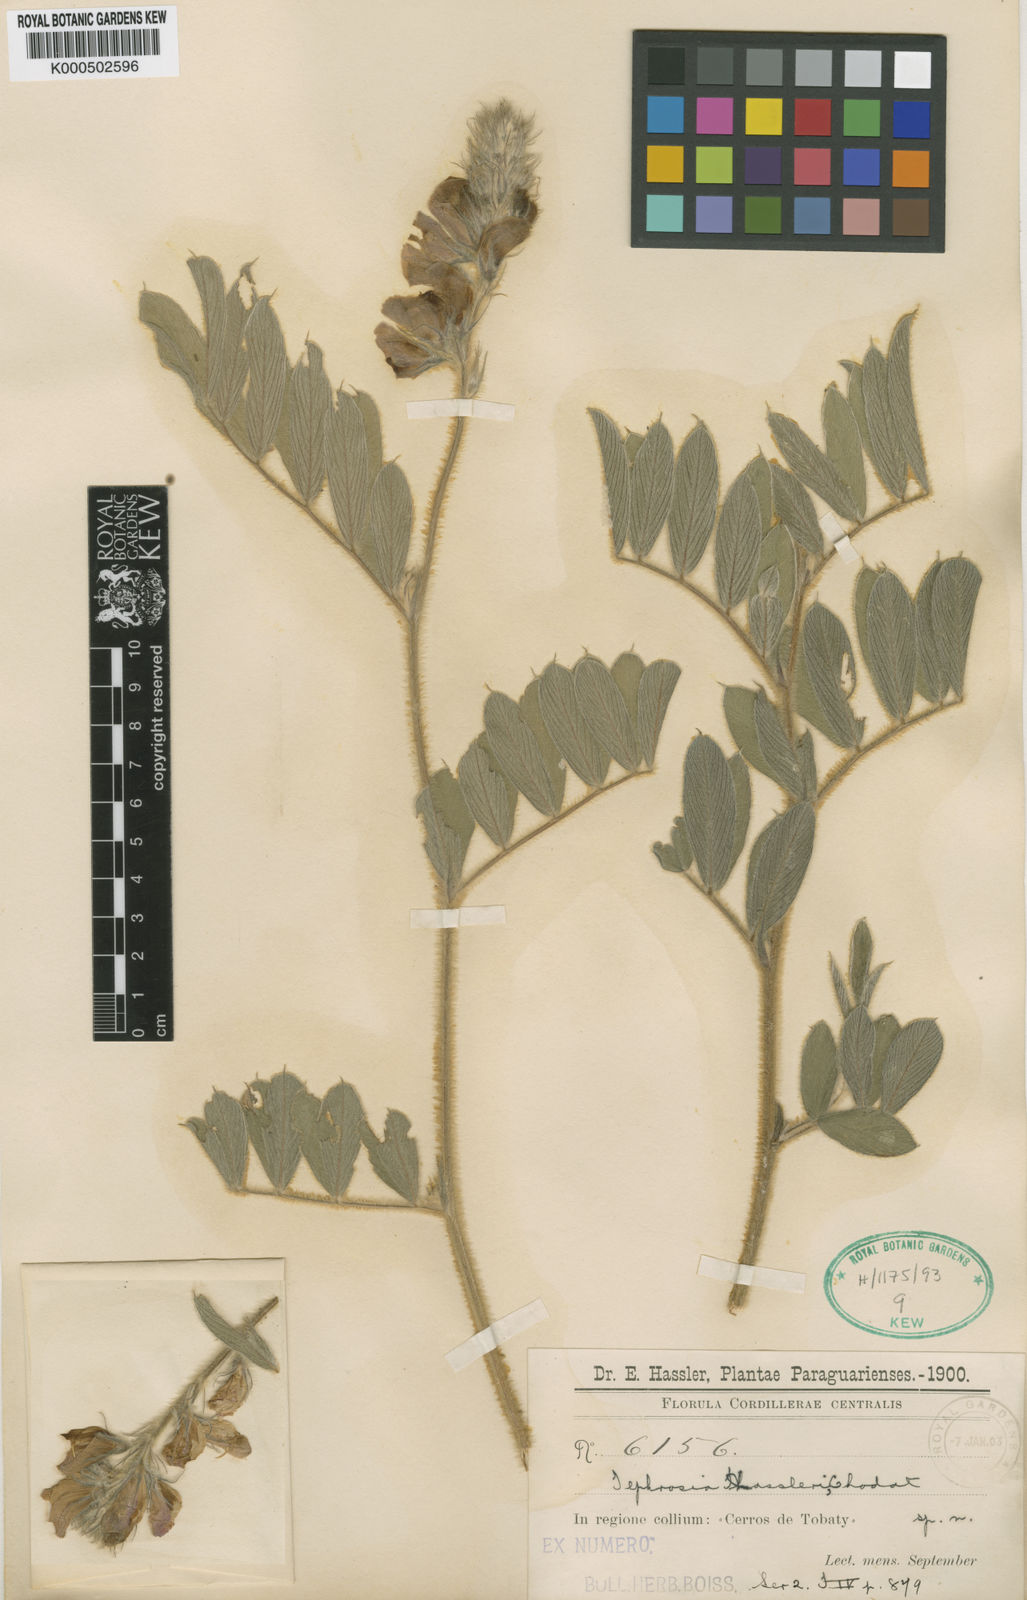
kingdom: Plantae
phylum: Tracheophyta
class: Magnoliopsida
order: Fabales
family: Fabaceae
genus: Tephrosia
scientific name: Tephrosia hassleri
